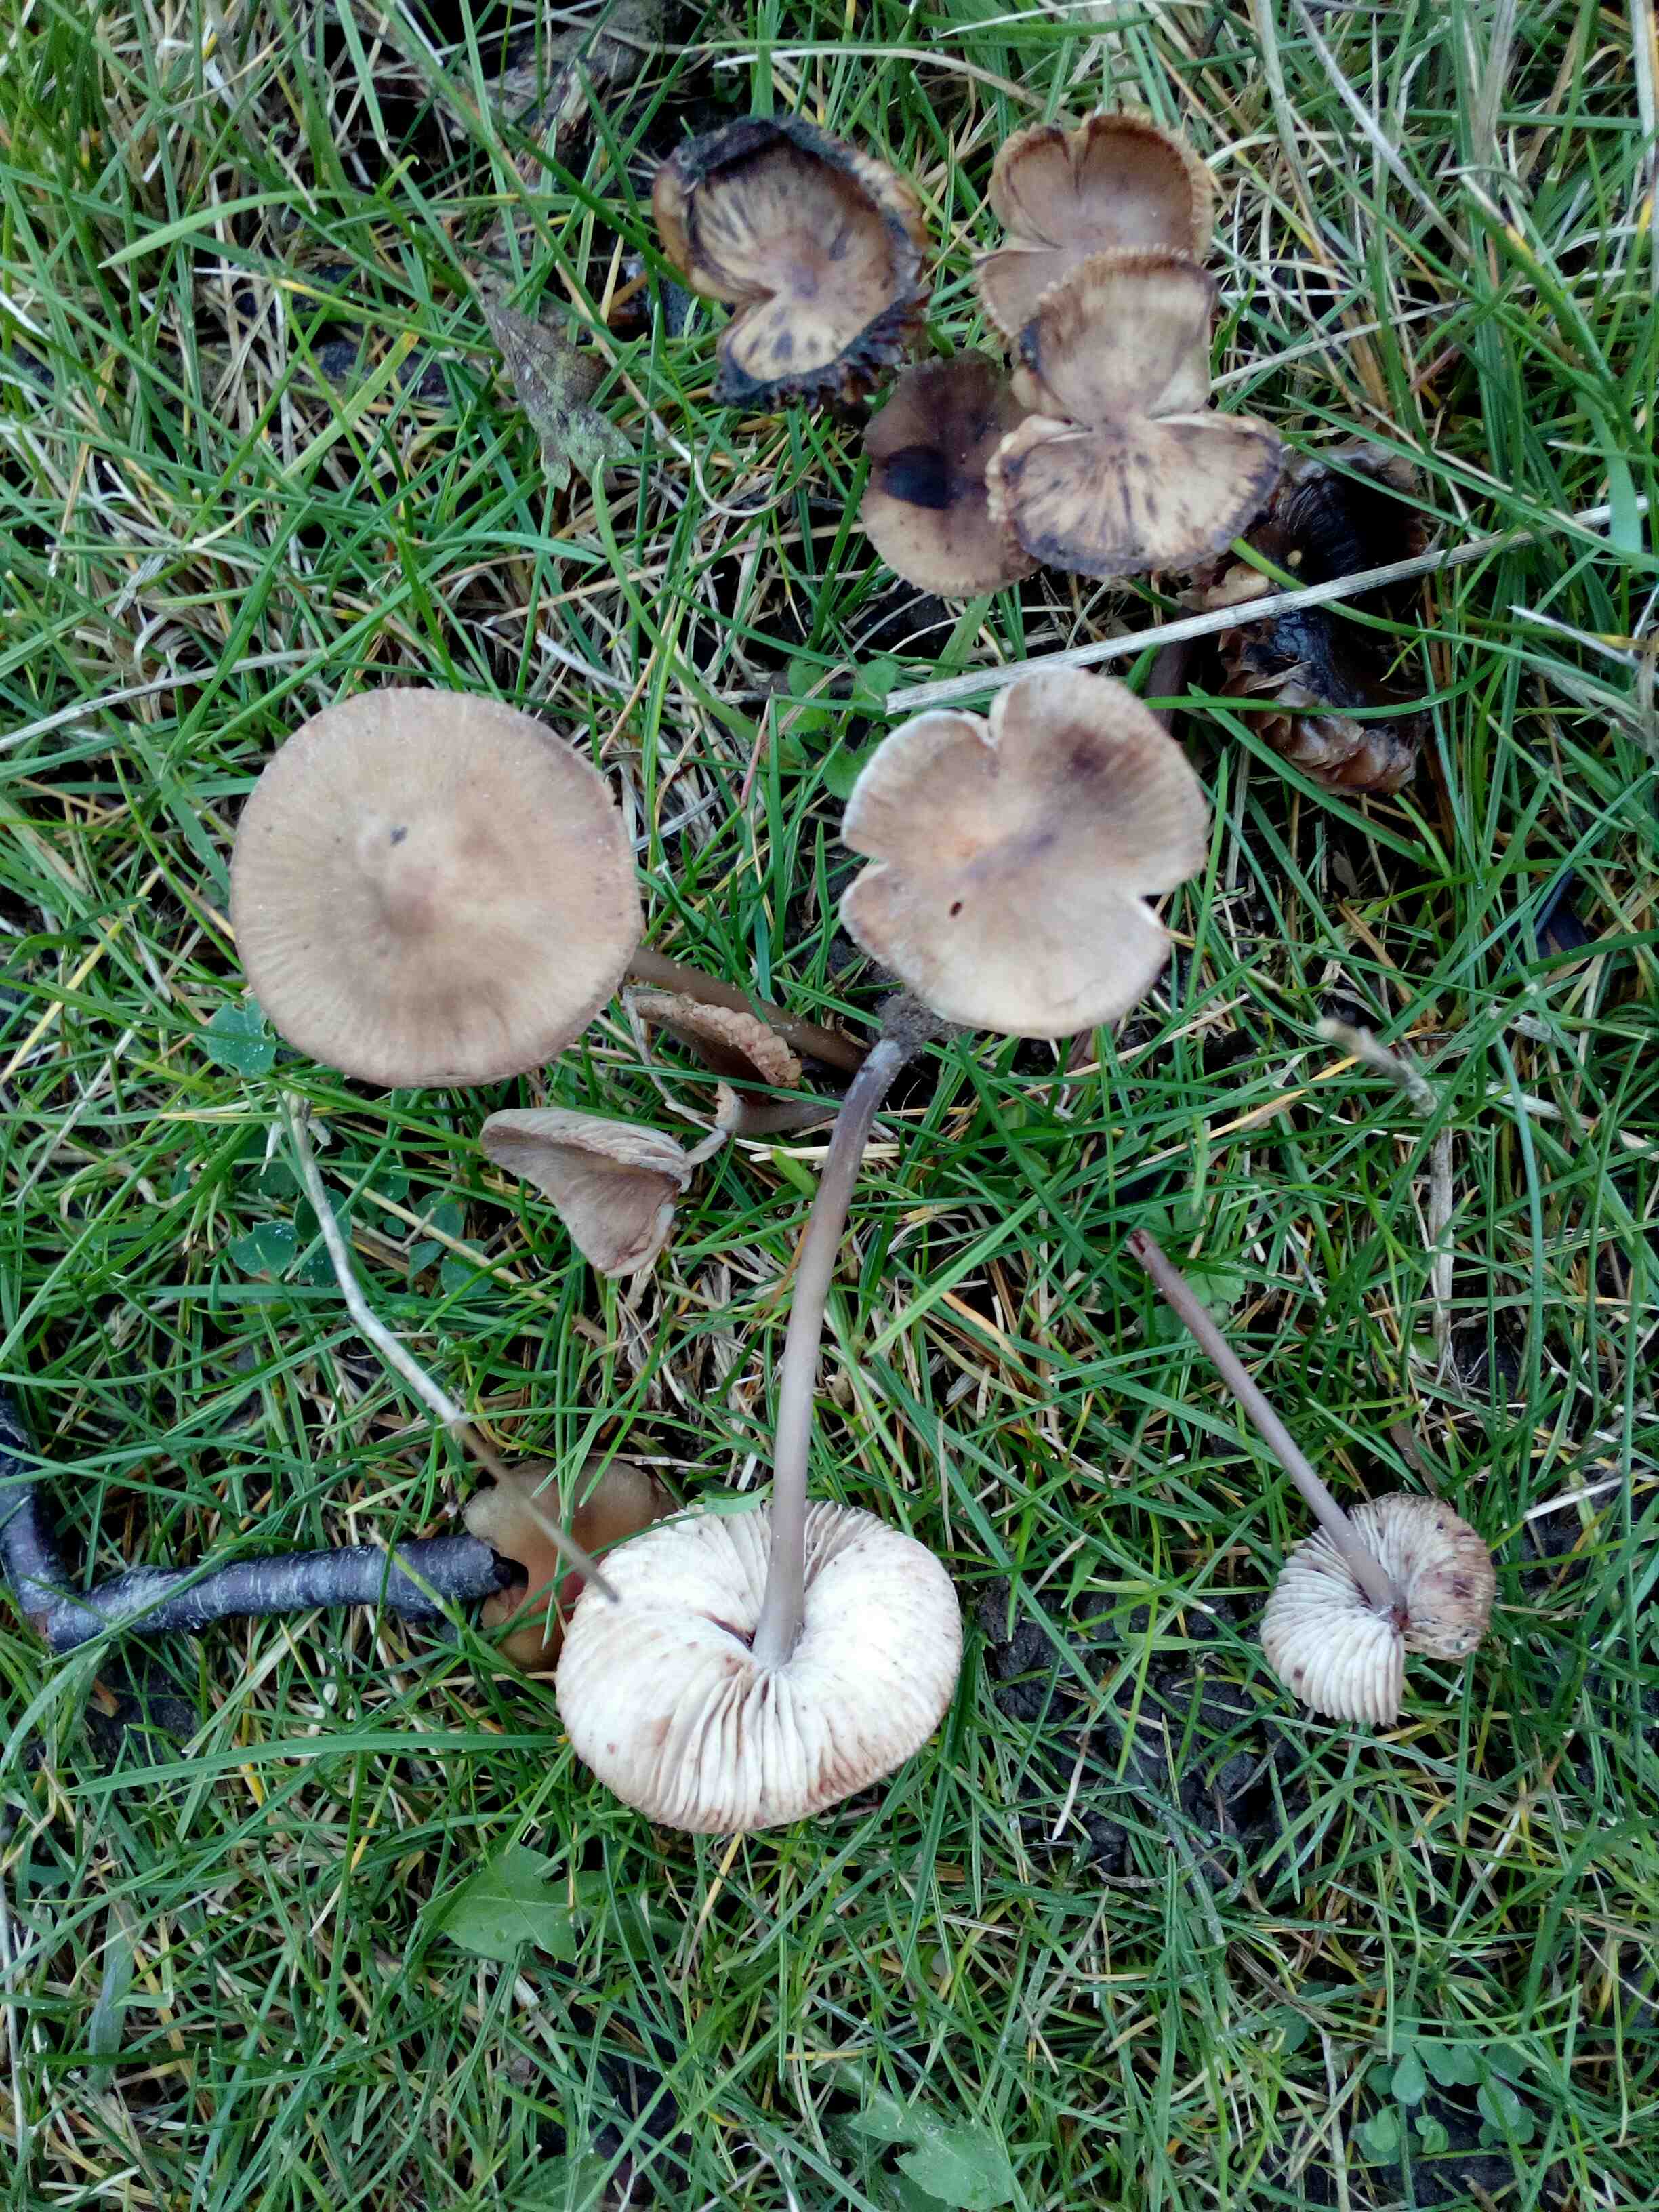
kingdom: Fungi
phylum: Basidiomycota
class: Agaricomycetes
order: Agaricales
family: Mycenaceae
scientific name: Mycenaceae
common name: huesvampfamilien
